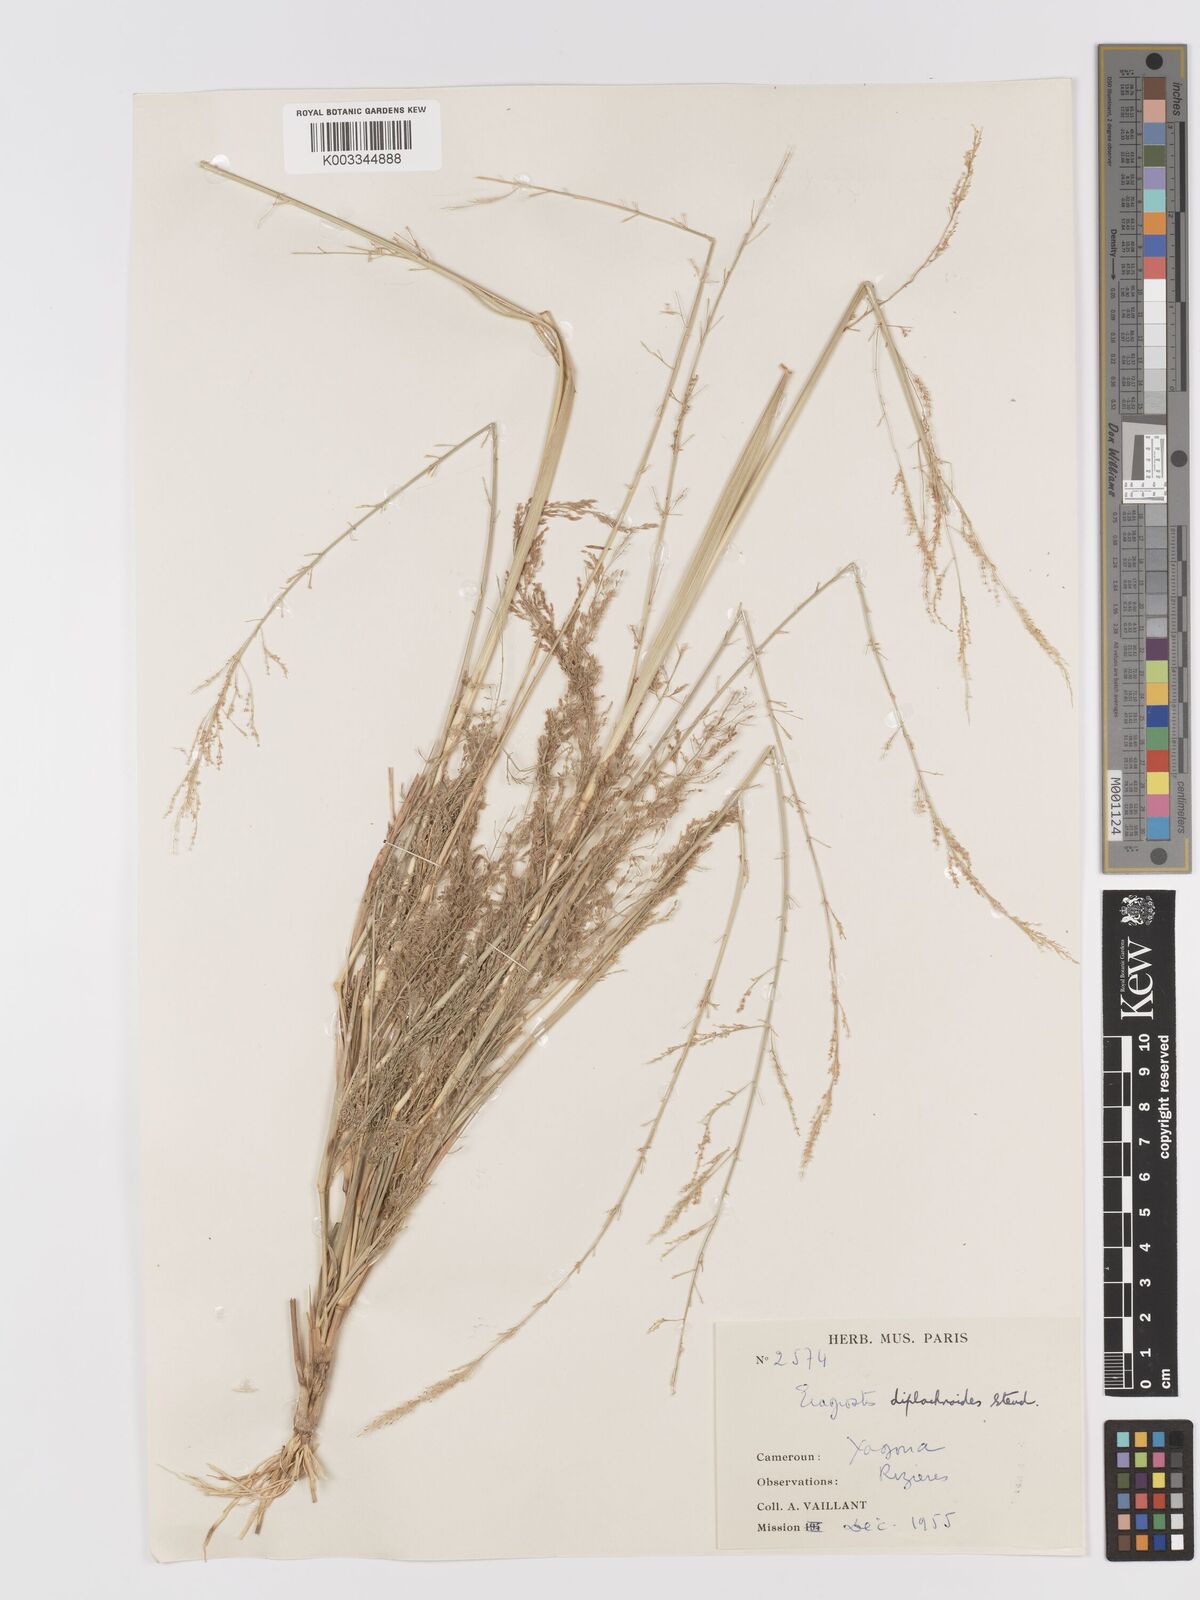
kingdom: Plantae
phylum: Tracheophyta
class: Liliopsida
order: Poales
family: Poaceae
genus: Eragrostis
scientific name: Eragrostis japonica
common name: Pond lovegrass
